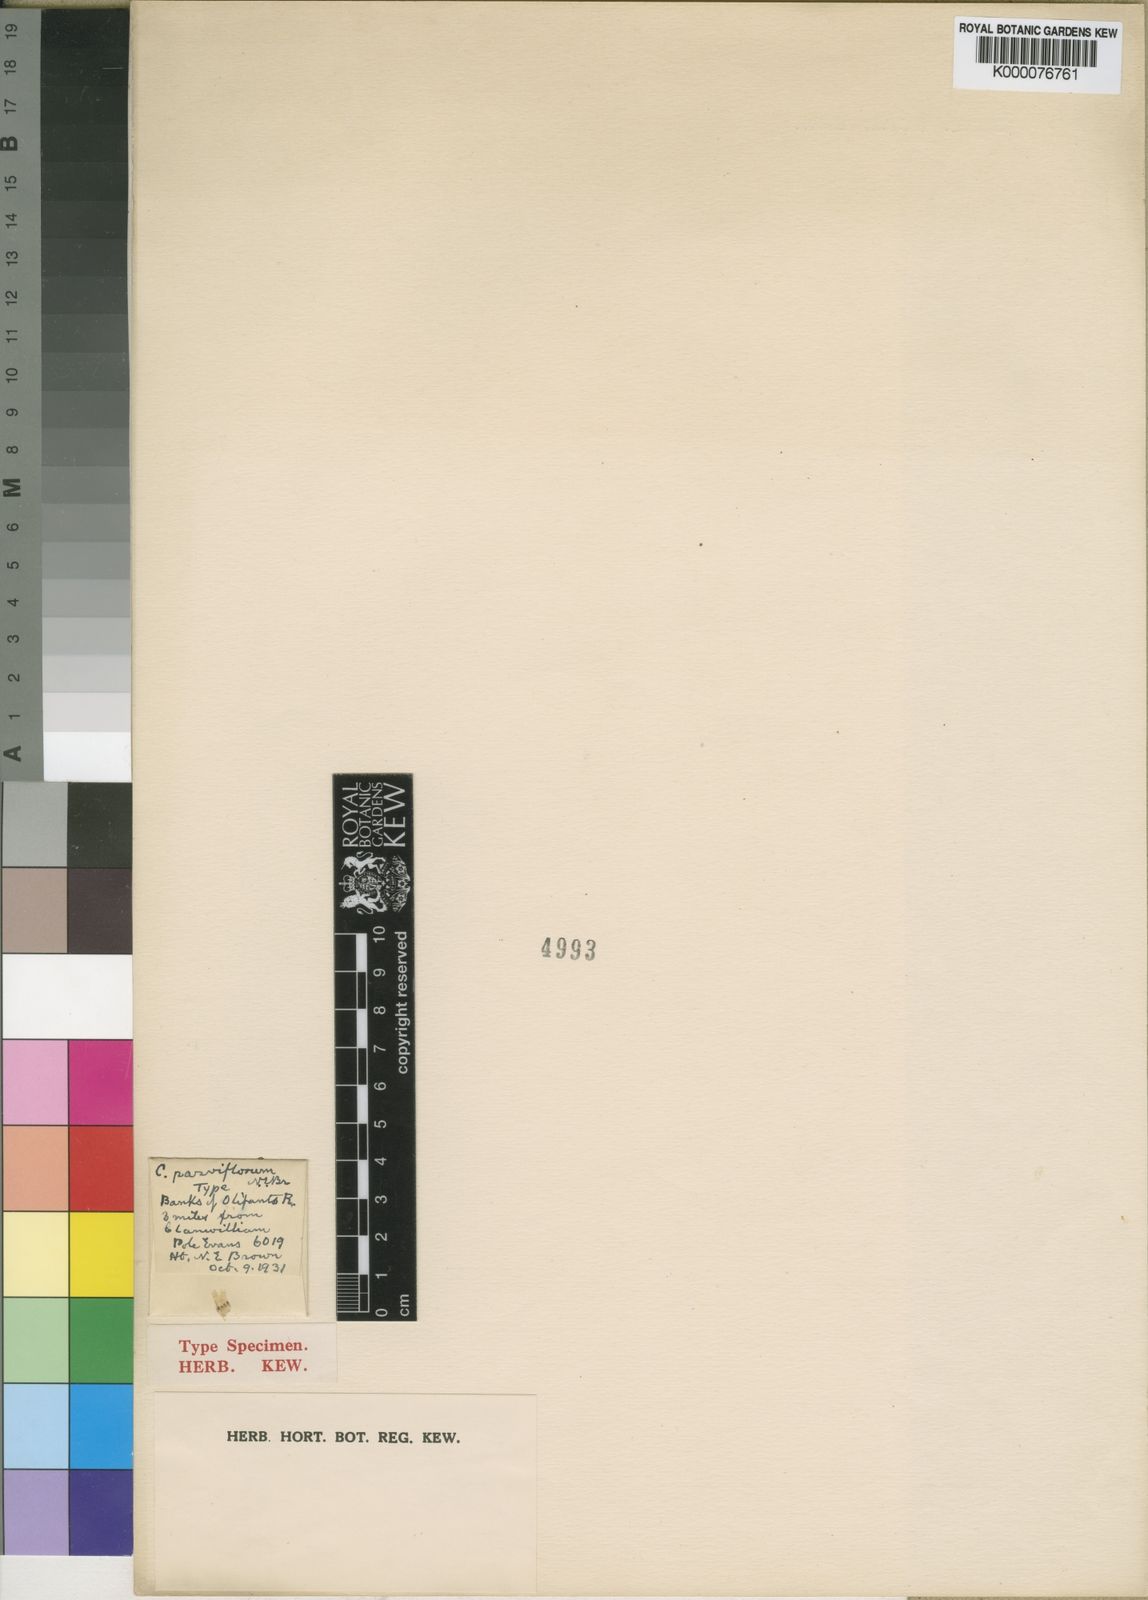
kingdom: Plantae
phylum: Tracheophyta
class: Magnoliopsida
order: Caryophyllales
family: Aizoaceae
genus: Conophytum
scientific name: Conophytum obcordellum
